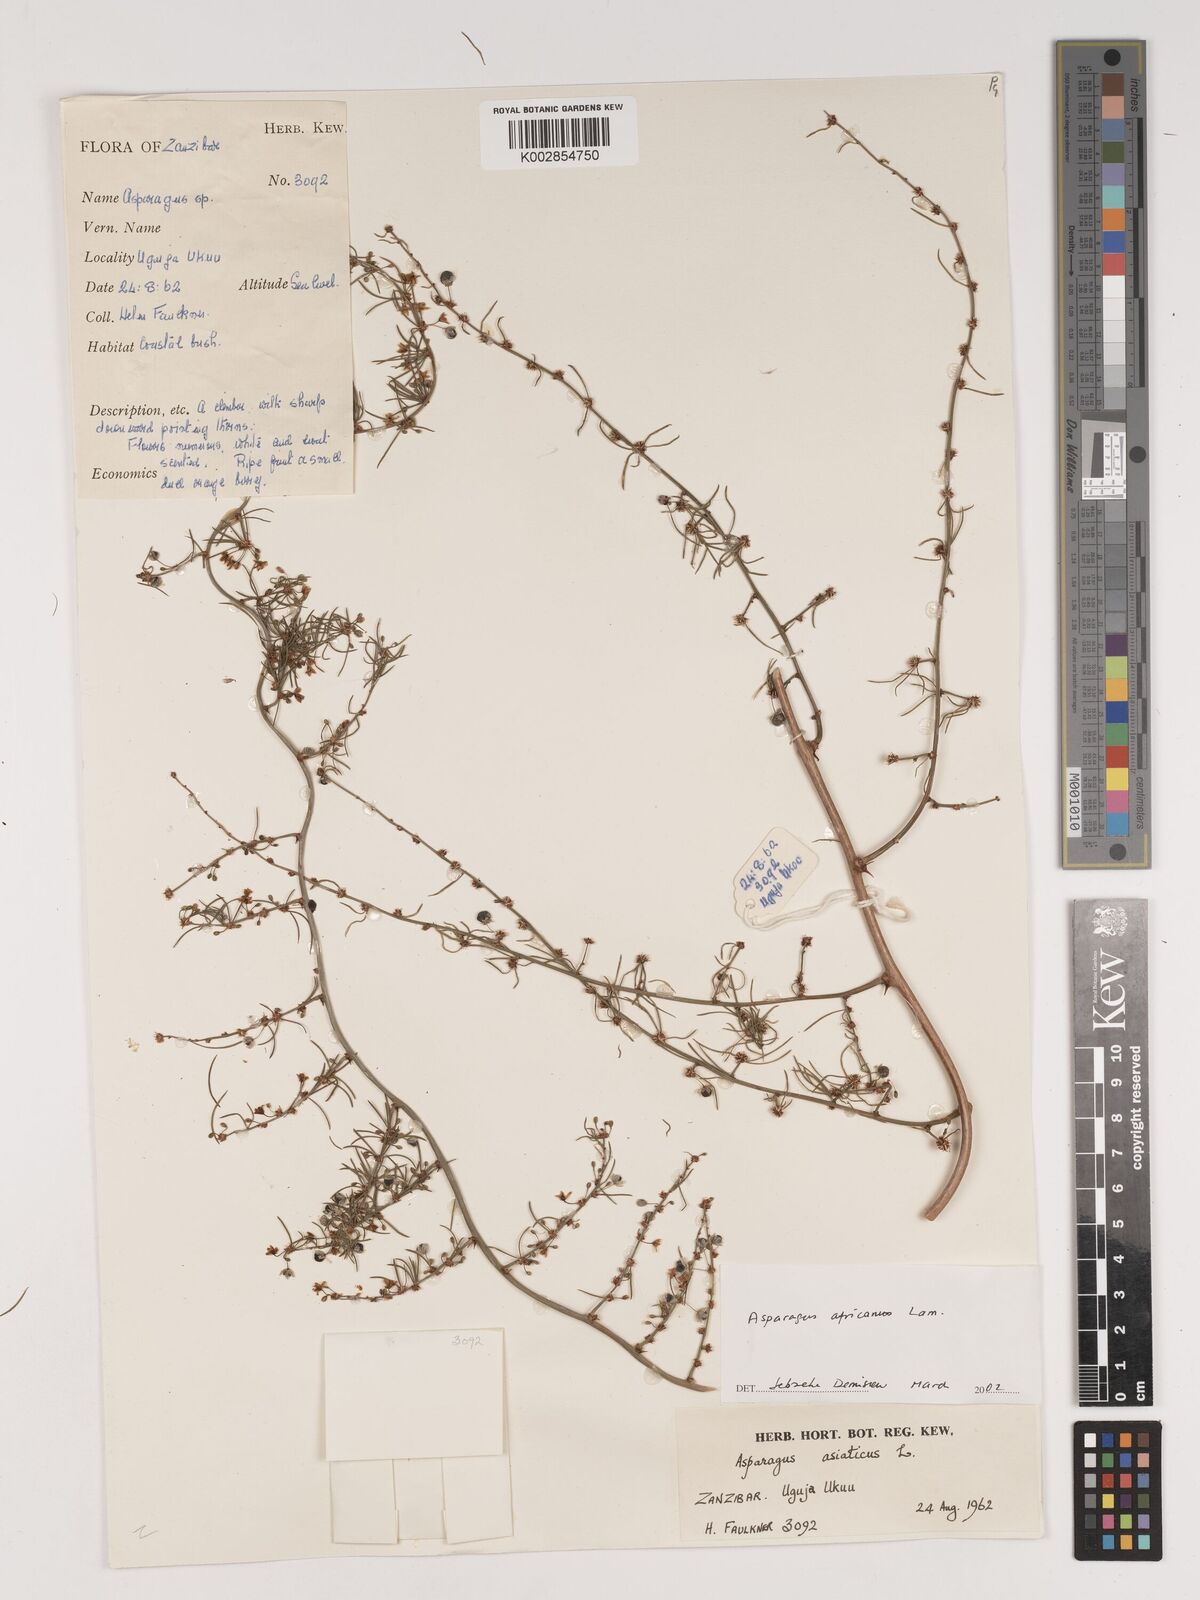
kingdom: Plantae
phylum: Tracheophyta
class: Liliopsida
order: Asparagales
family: Asparagaceae
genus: Asparagus
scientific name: Asparagus africanus
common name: Asparagus-fern
